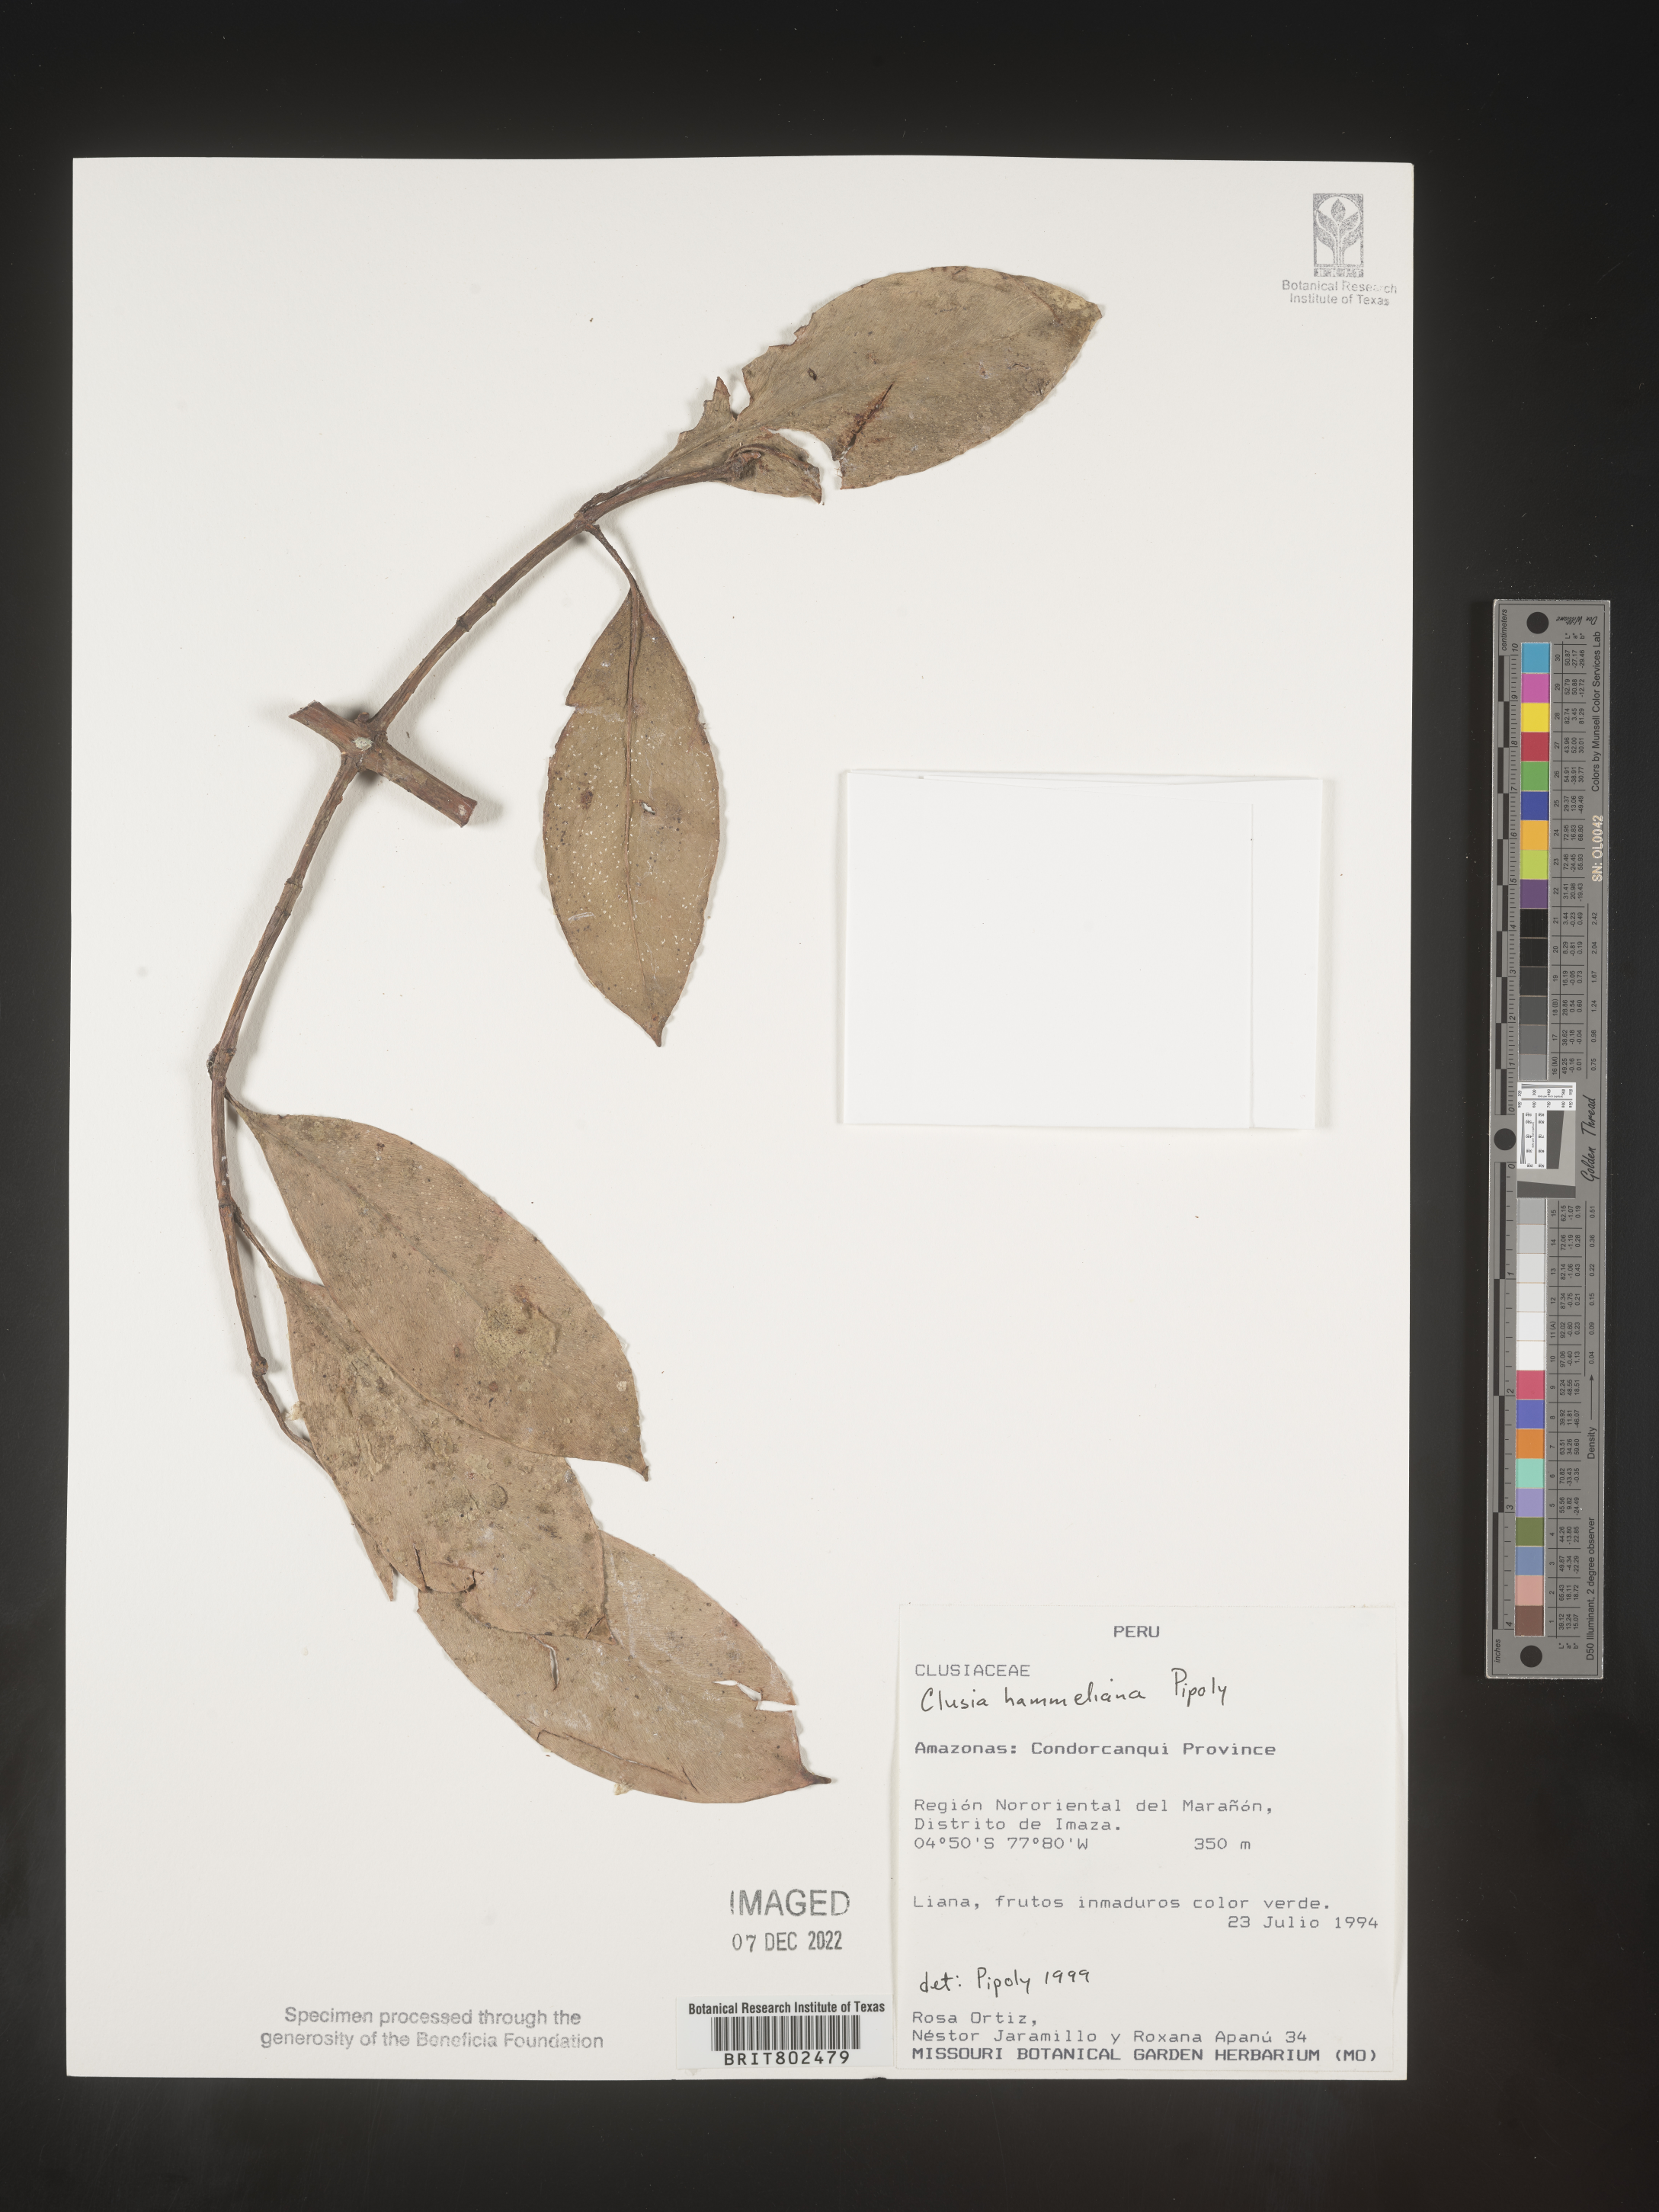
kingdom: Plantae
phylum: Tracheophyta
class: Magnoliopsida
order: Malpighiales
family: Clusiaceae
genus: Clusia
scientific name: Clusia hammeliana
